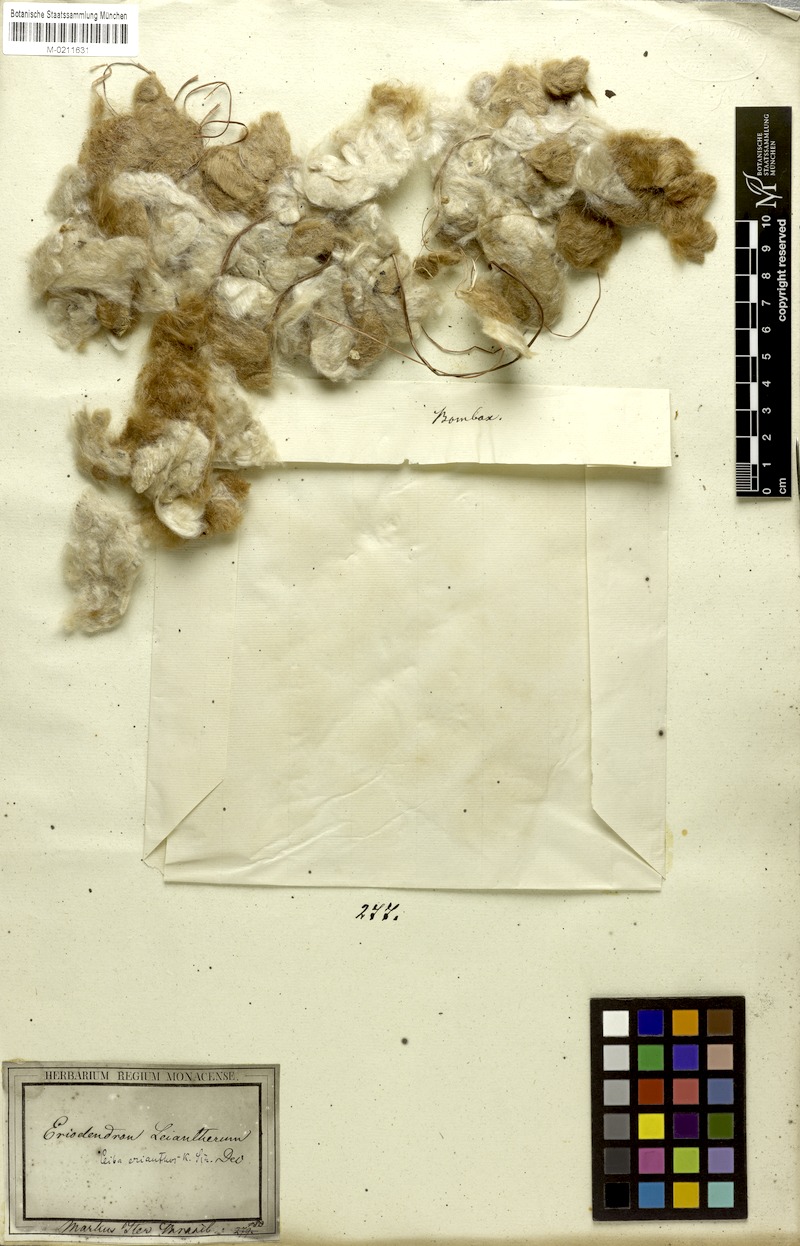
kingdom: Plantae
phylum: Tracheophyta
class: Magnoliopsida
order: Malvales
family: Malvaceae
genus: Ceiba
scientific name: Ceiba erianthos
